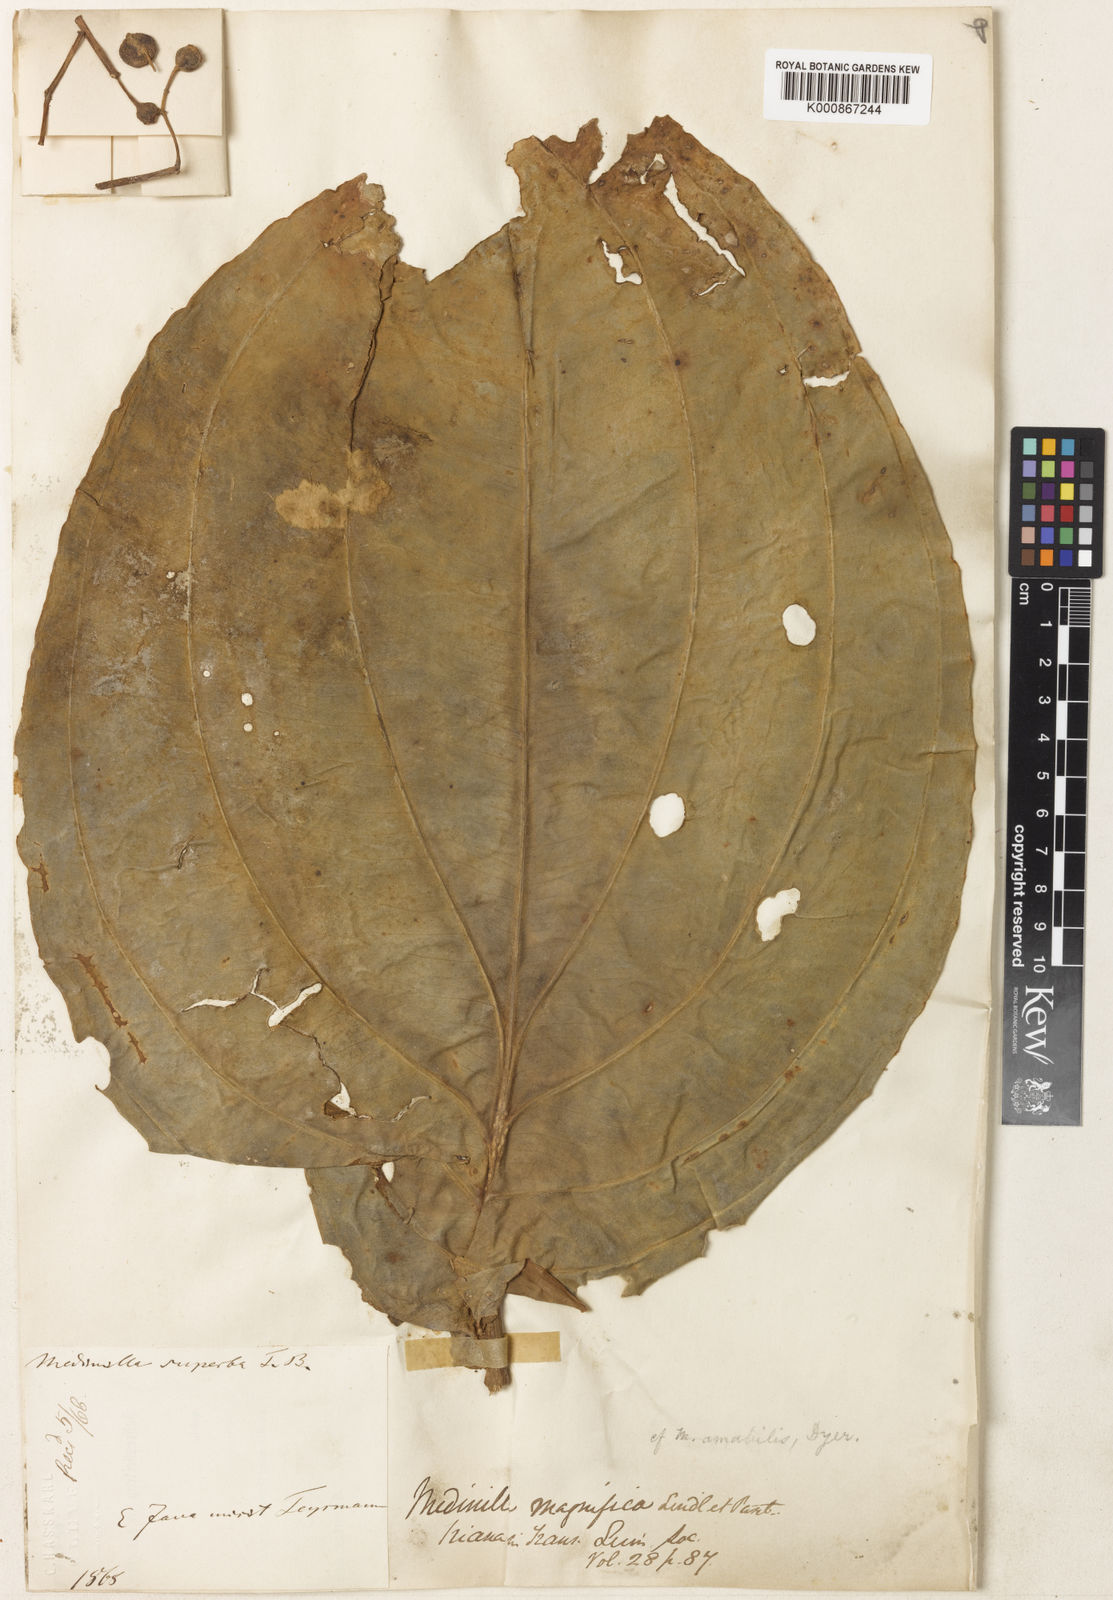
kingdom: Plantae
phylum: Tracheophyta
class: Magnoliopsida
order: Myrtales
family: Melastomataceae
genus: Medinilla
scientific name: Medinilla teysmannii
